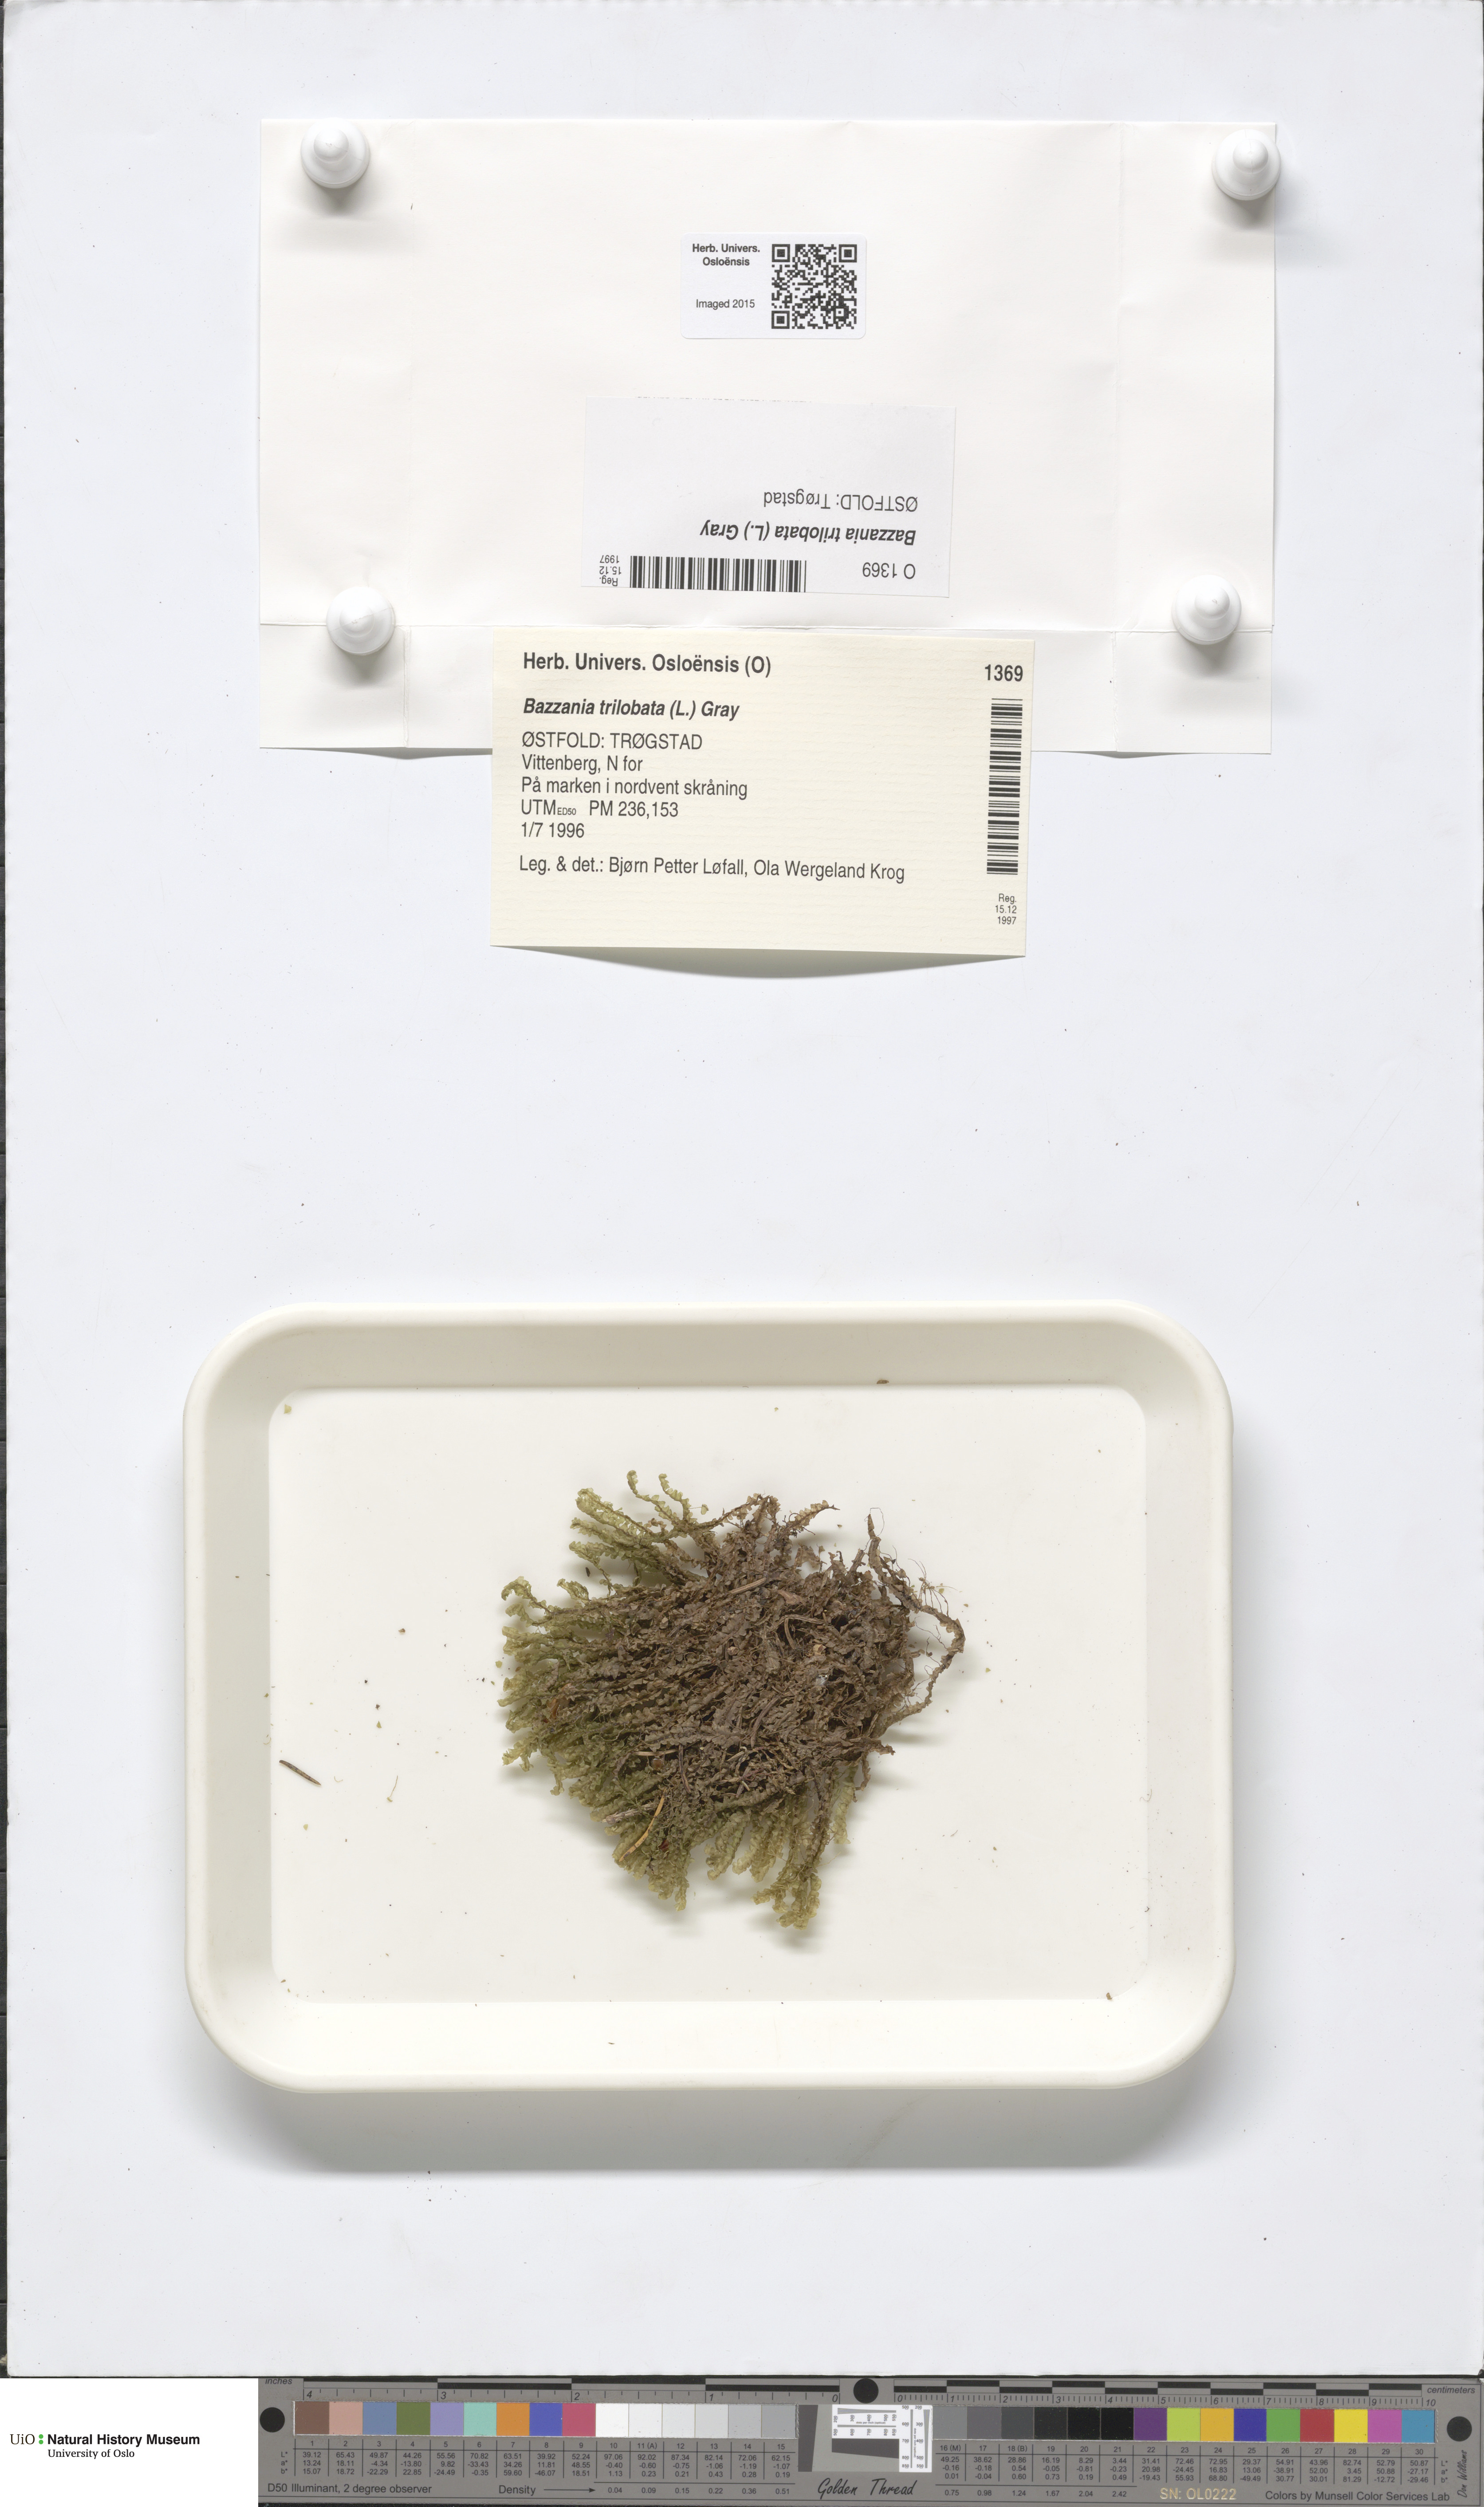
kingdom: Plantae
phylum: Marchantiophyta
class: Jungermanniopsida
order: Jungermanniales
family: Lepidoziaceae
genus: Bazzania
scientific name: Bazzania trilobata
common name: Three-lobed whipwort
